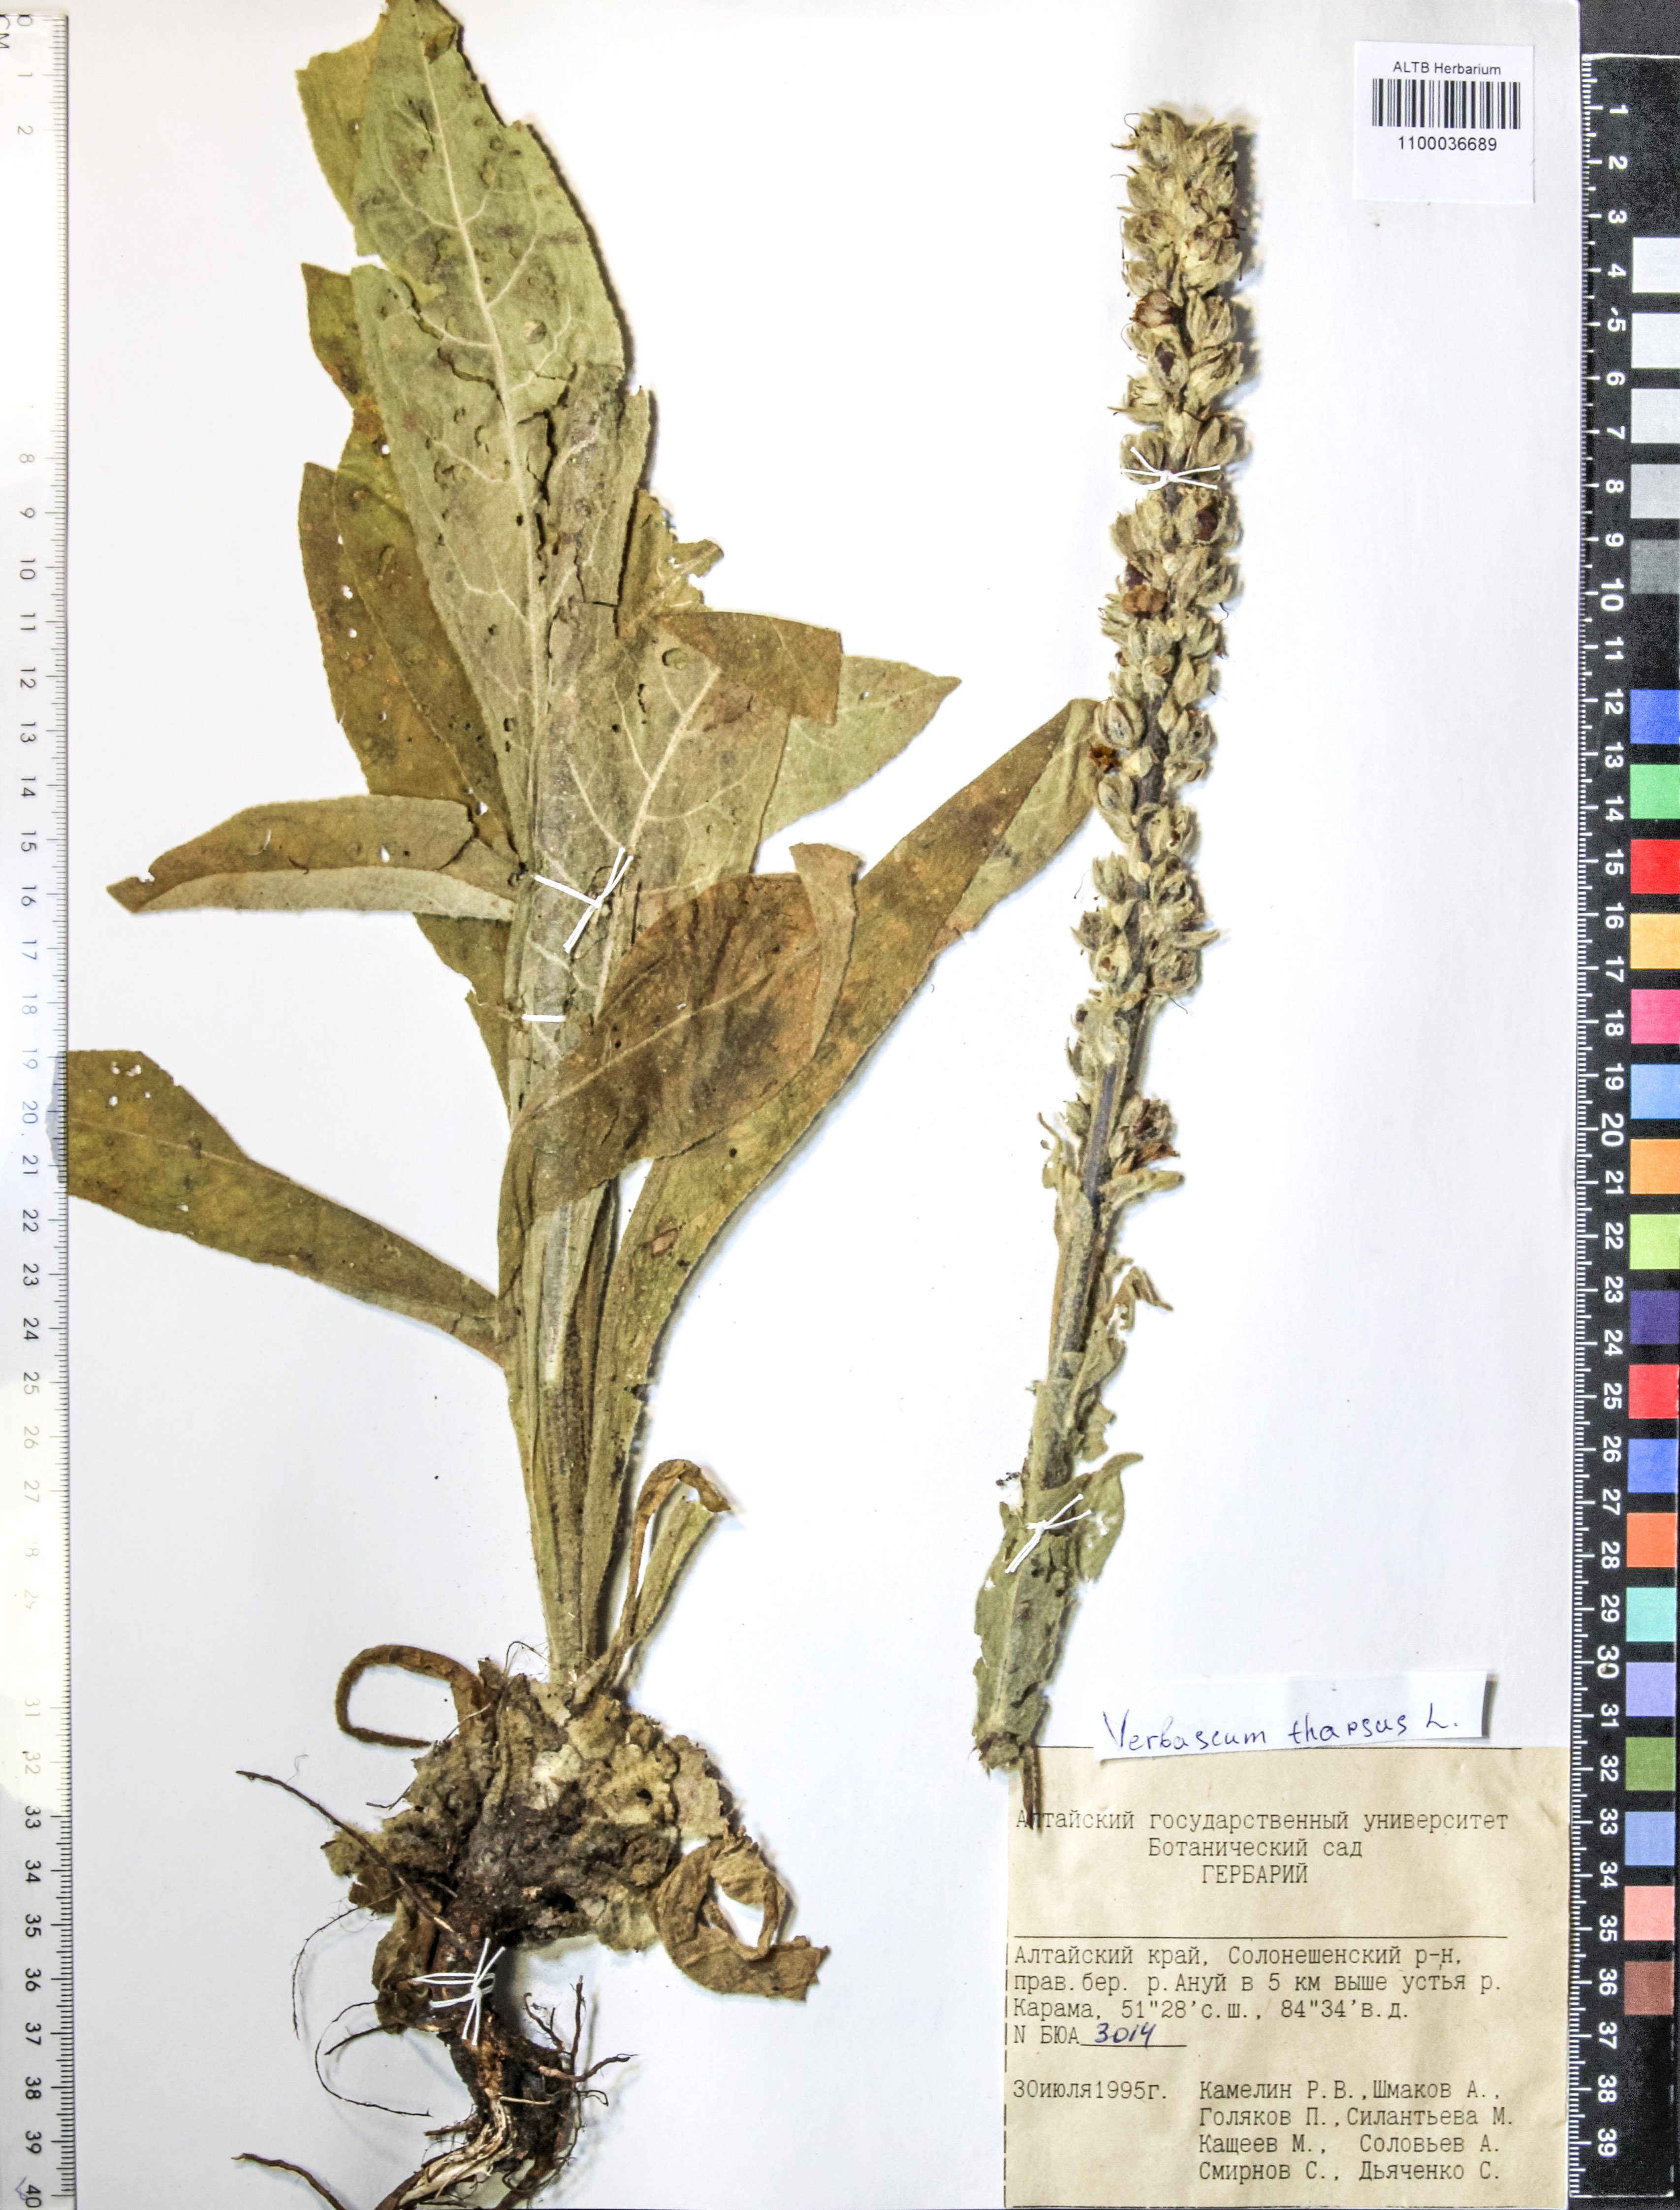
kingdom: Plantae
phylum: Tracheophyta
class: Magnoliopsida
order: Lamiales
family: Scrophulariaceae
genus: Verbascum
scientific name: Verbascum thapsus
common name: Common mullein
